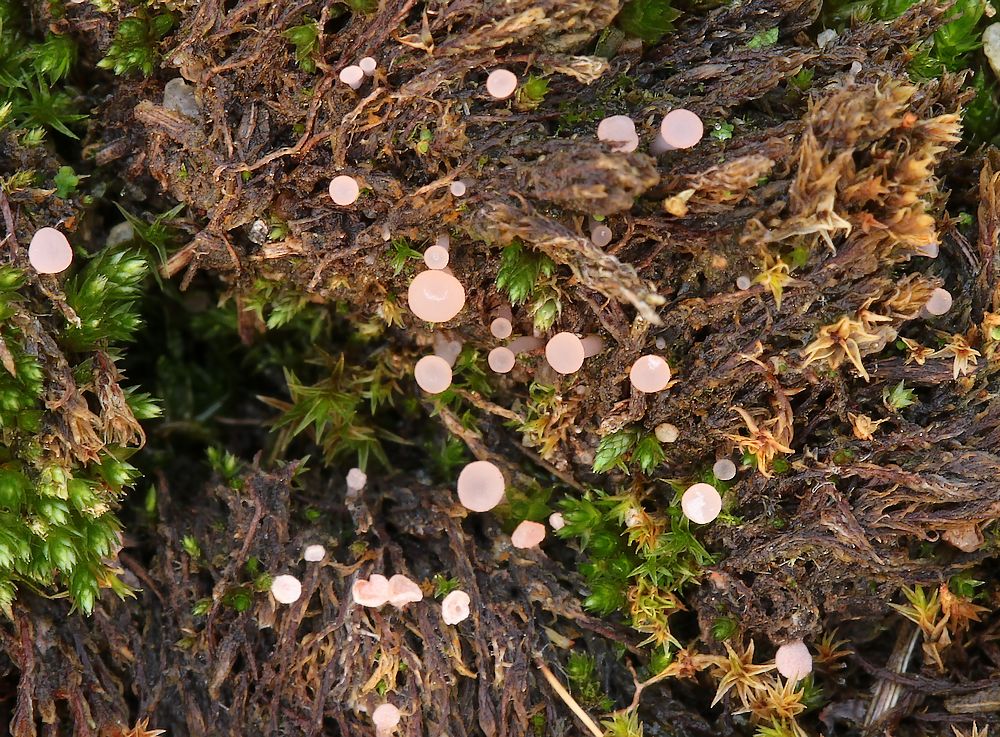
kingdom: Fungi
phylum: Ascomycota
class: Leotiomycetes
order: Helotiales
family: Hyaloscyphaceae
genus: Roseodiscus
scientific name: Roseodiscus formosus
